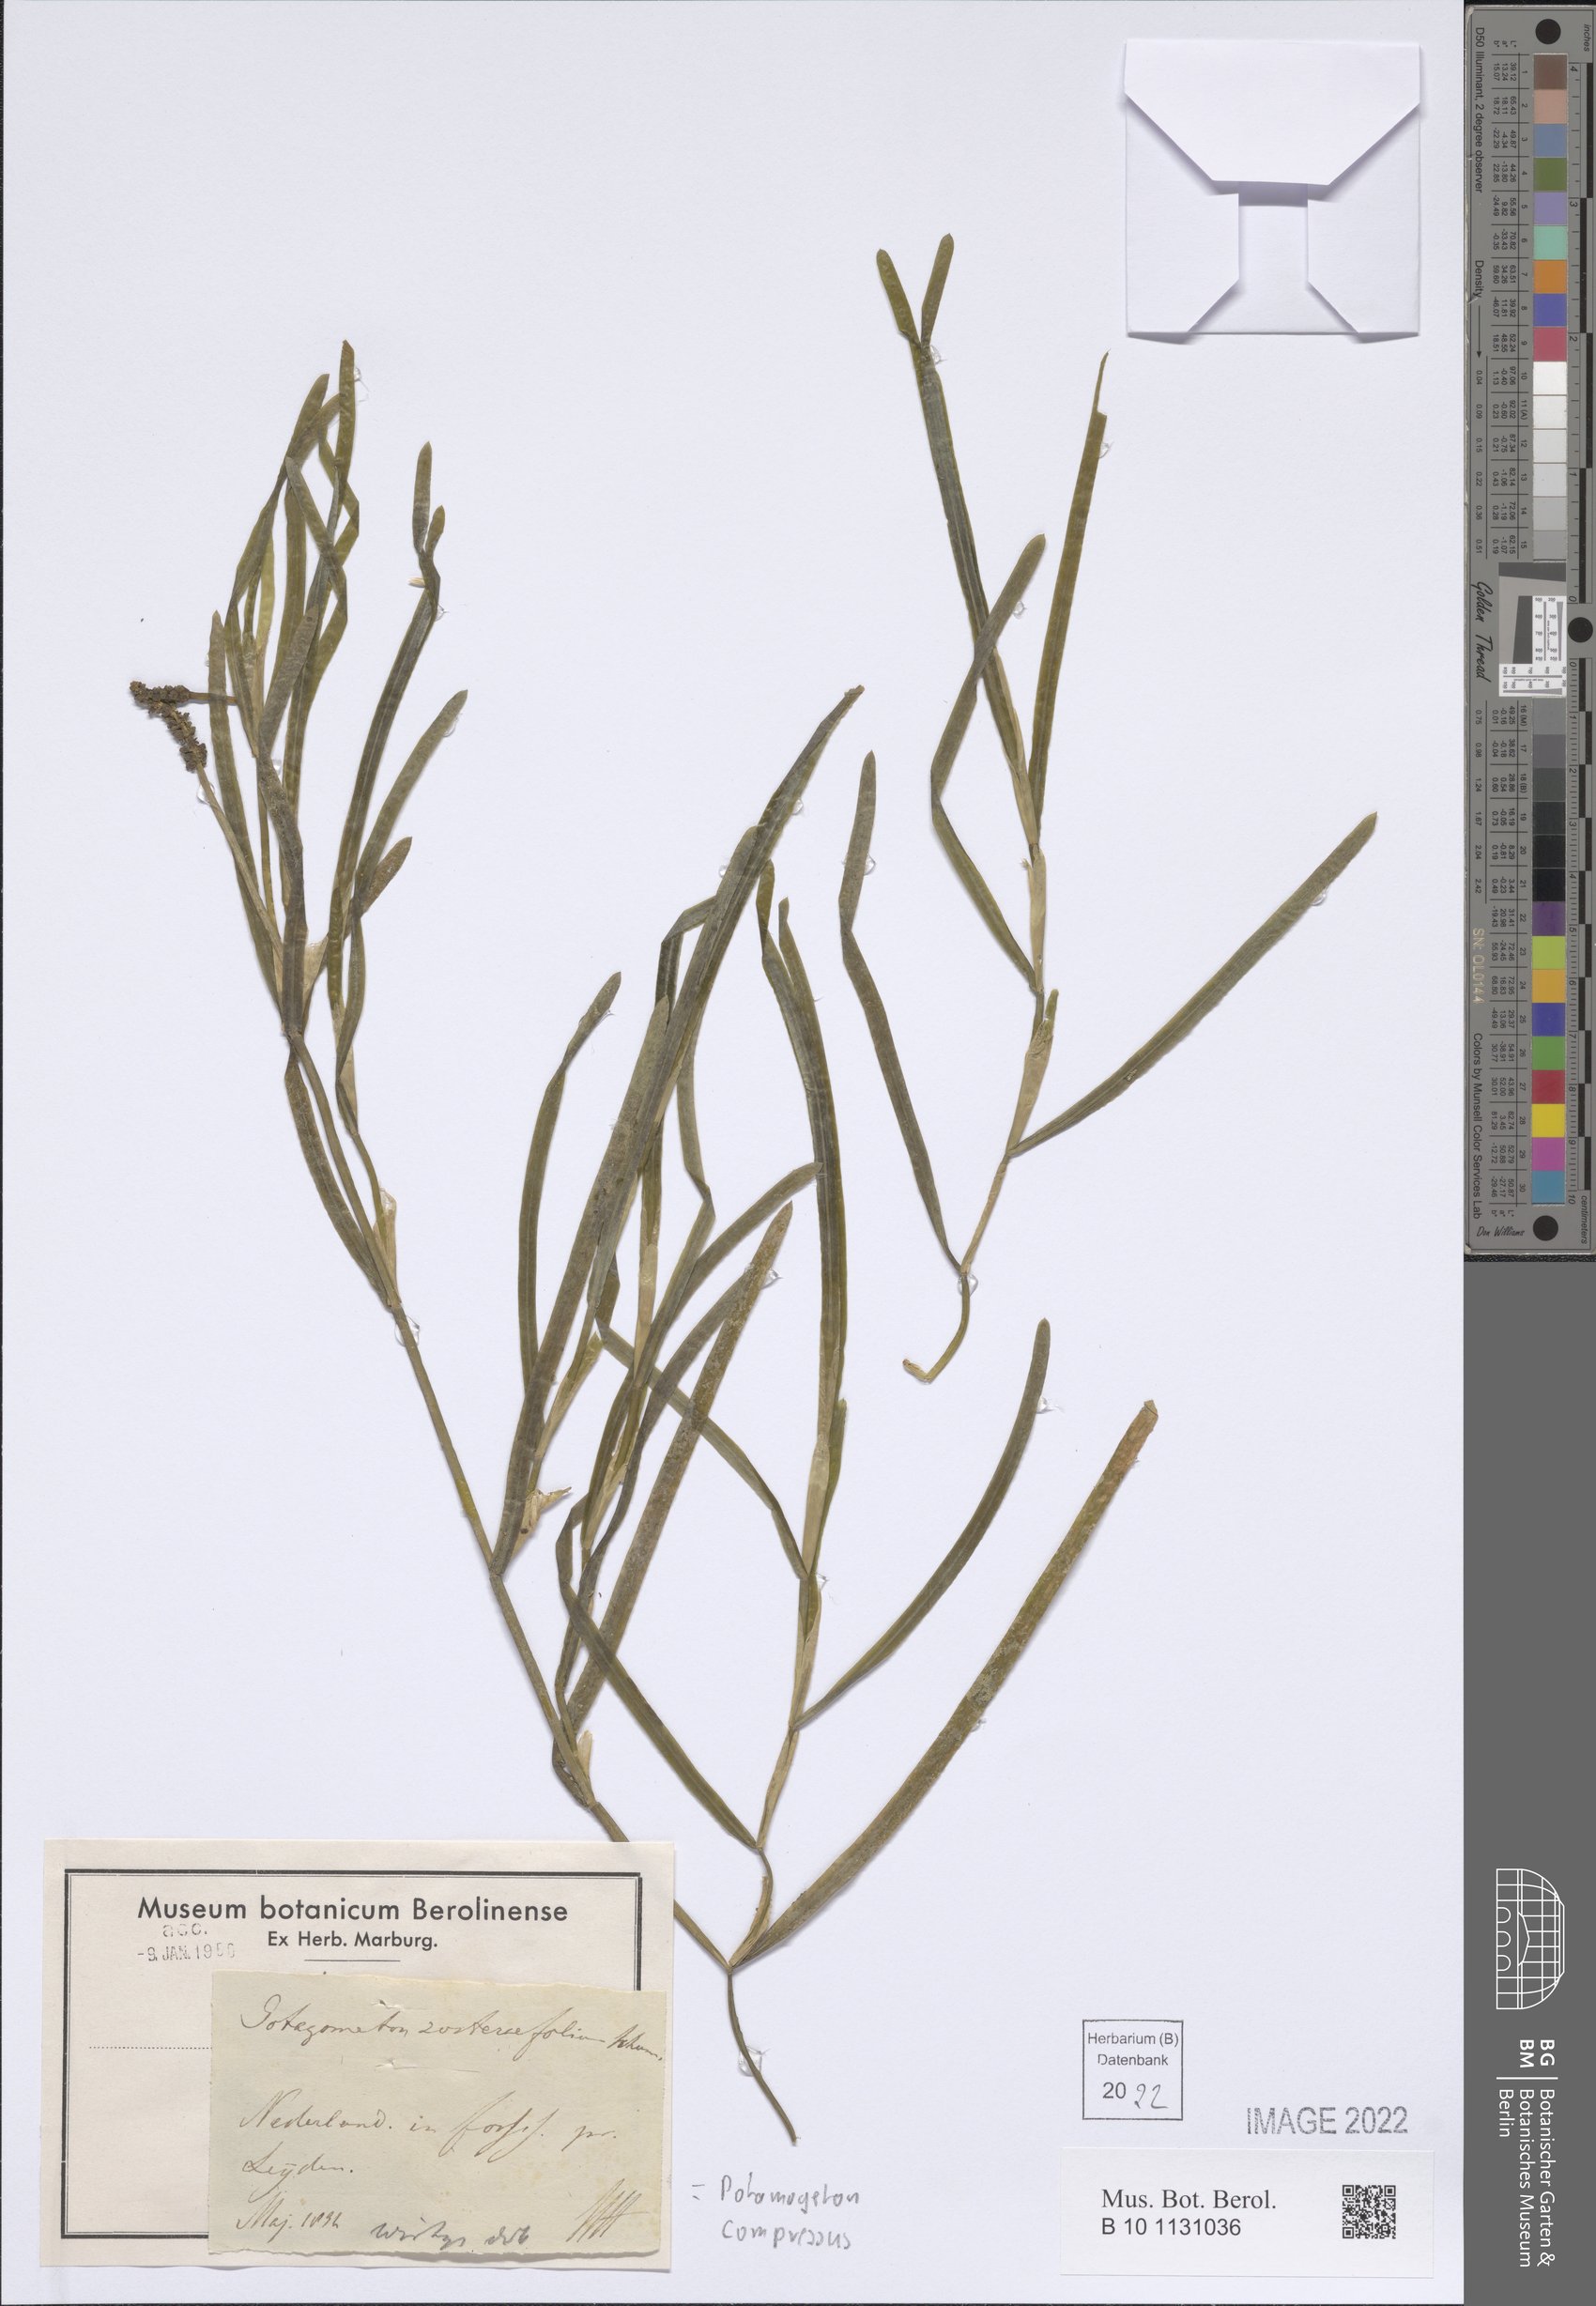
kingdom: Plantae
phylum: Tracheophyta
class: Liliopsida
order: Alismatales
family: Potamogetonaceae
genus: Potamogeton
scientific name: Potamogeton compressus
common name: Grass-wrack pondweed
